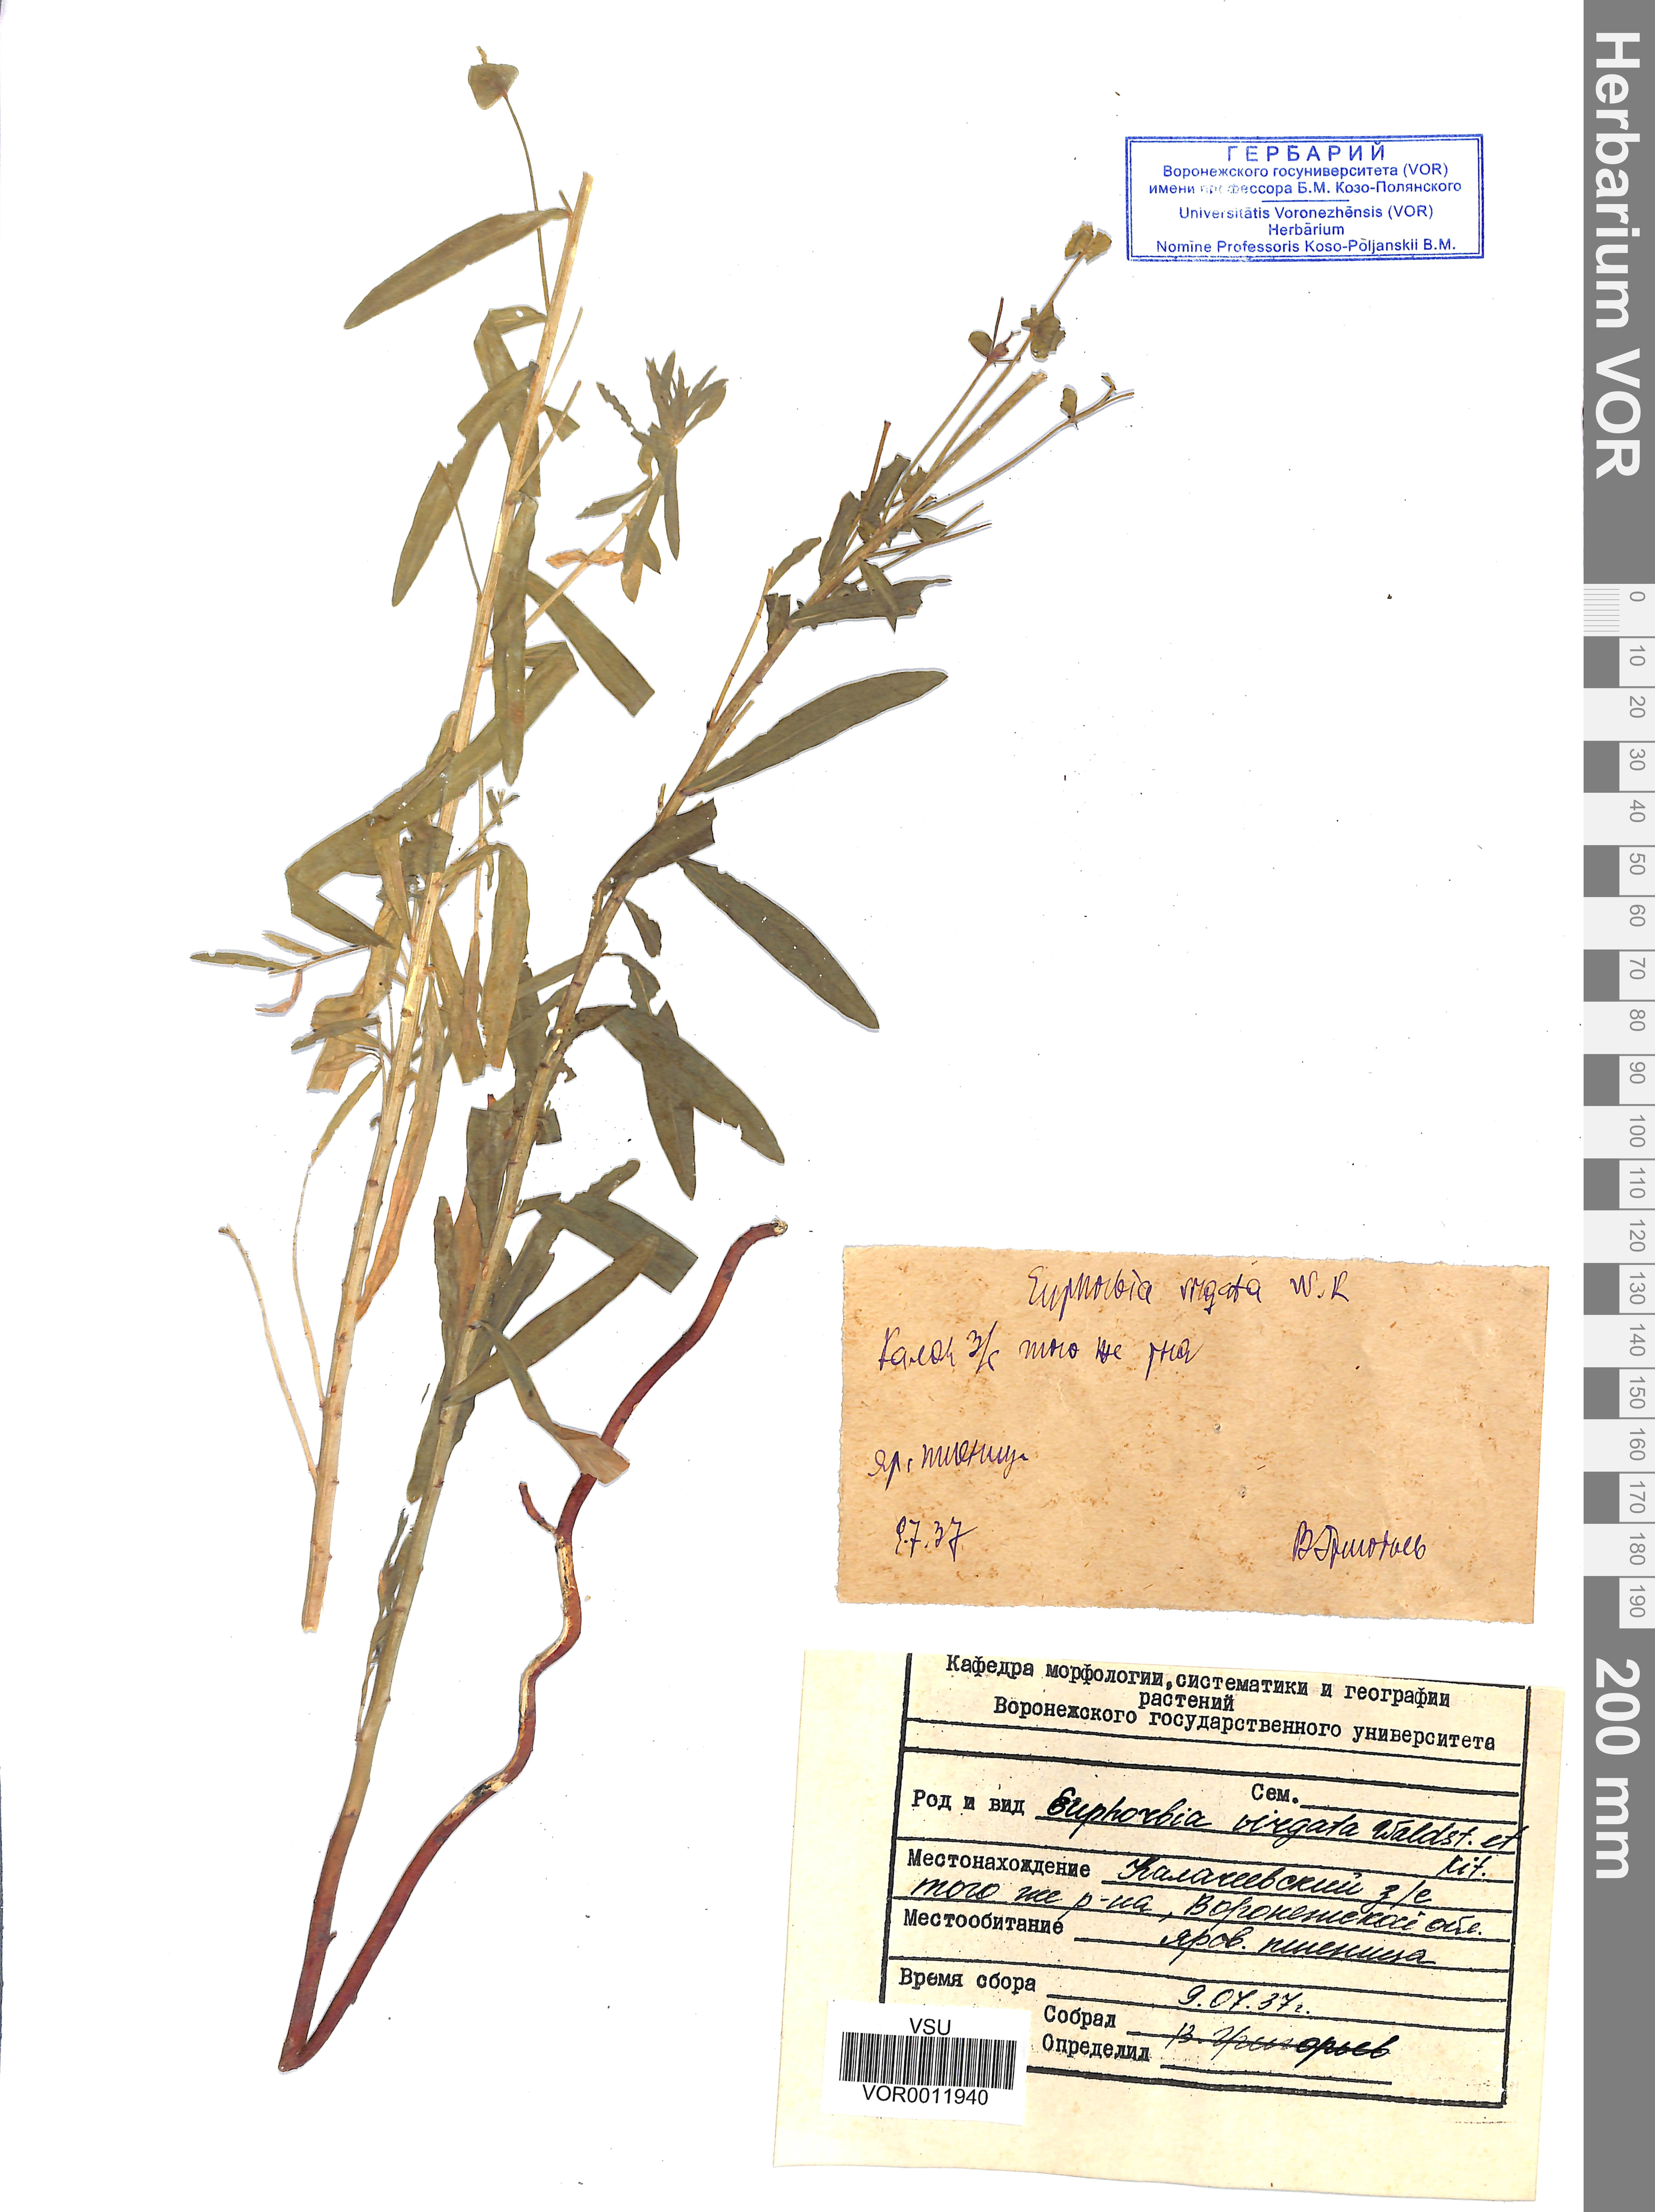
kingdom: Plantae
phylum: Tracheophyta
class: Magnoliopsida
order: Malpighiales
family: Euphorbiaceae
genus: Euphorbia
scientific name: Euphorbia virgata
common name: Leafy spurge
